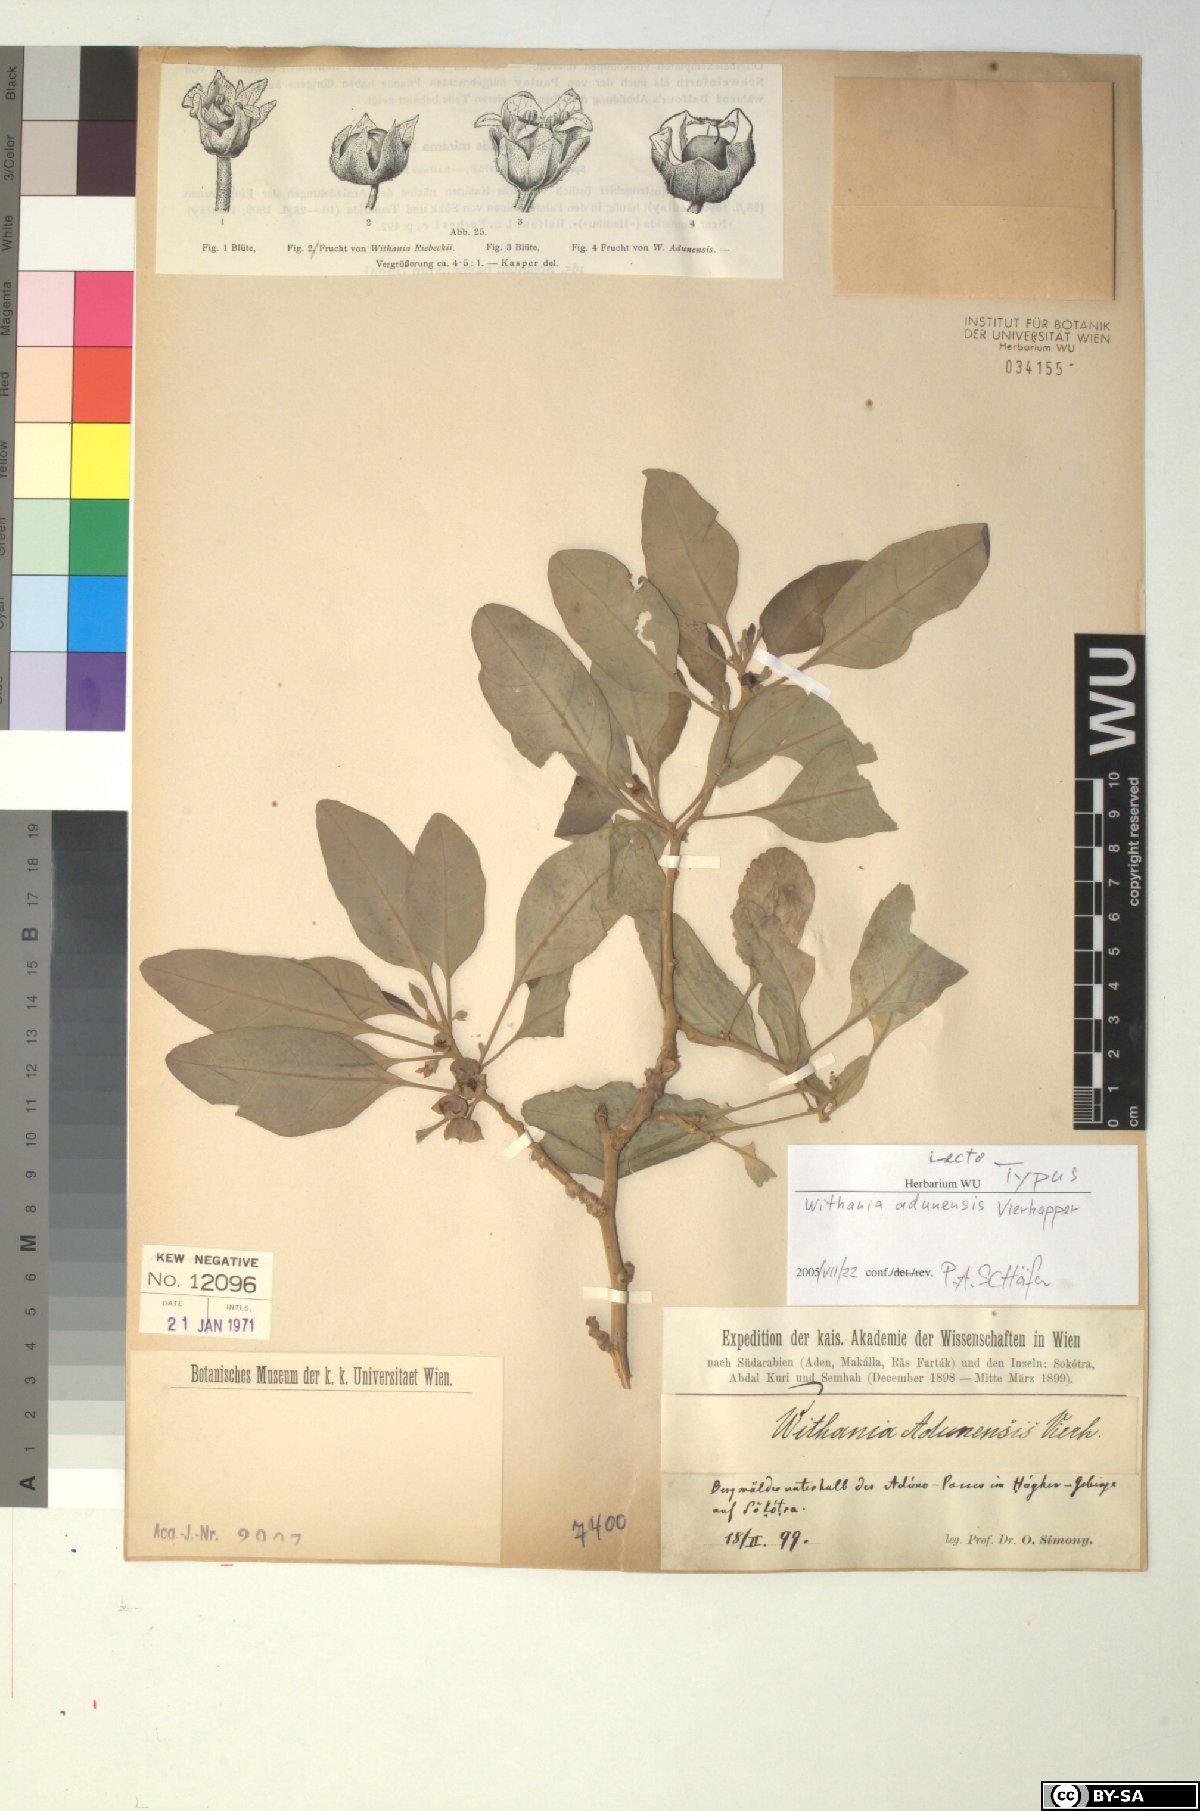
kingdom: Plantae
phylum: Tracheophyta
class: Magnoliopsida
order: Solanales
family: Solanaceae
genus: Withania
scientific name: Withania adunensis
